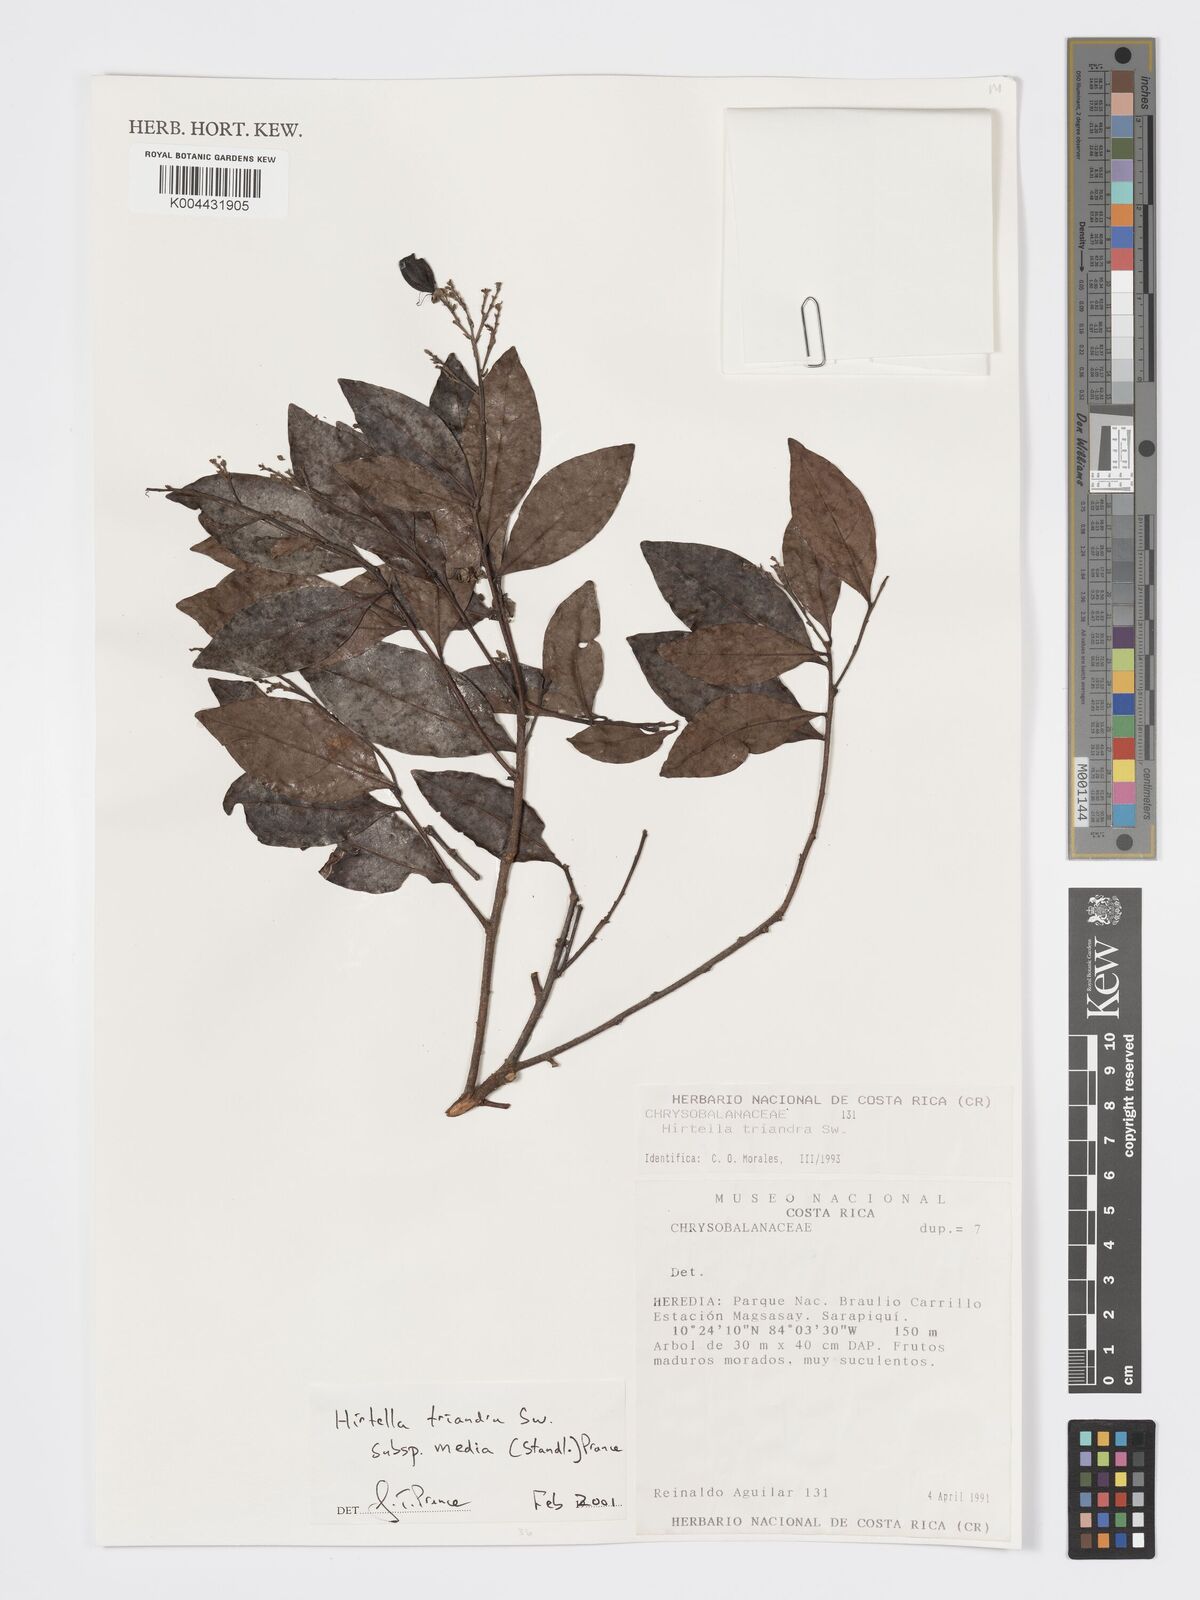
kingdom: Plantae
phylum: Tracheophyta
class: Magnoliopsida
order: Malpighiales
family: Chrysobalanaceae
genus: Hirtella
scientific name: Hirtella triandra
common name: Hairy plum
